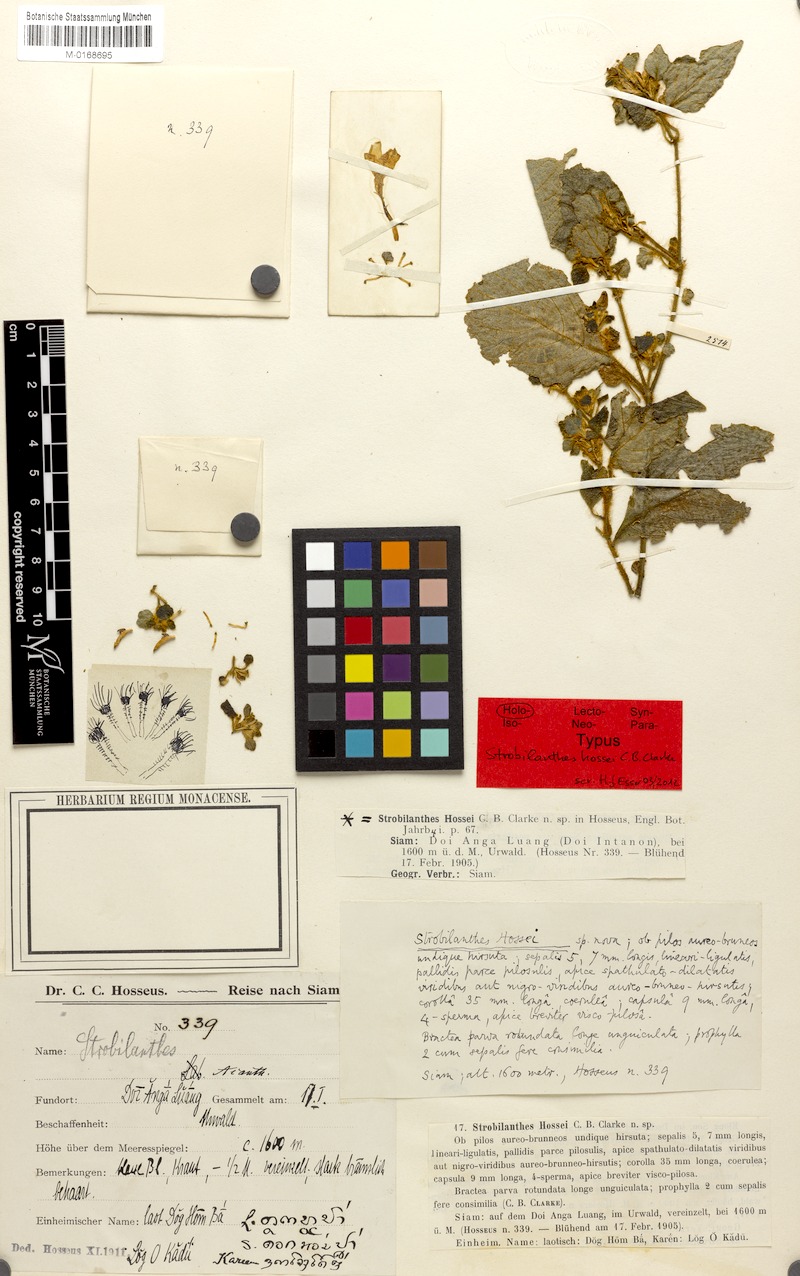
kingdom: Plantae
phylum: Tracheophyta
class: Magnoliopsida
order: Lamiales
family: Acanthaceae
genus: Strobilanthes
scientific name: Strobilanthes hossei
